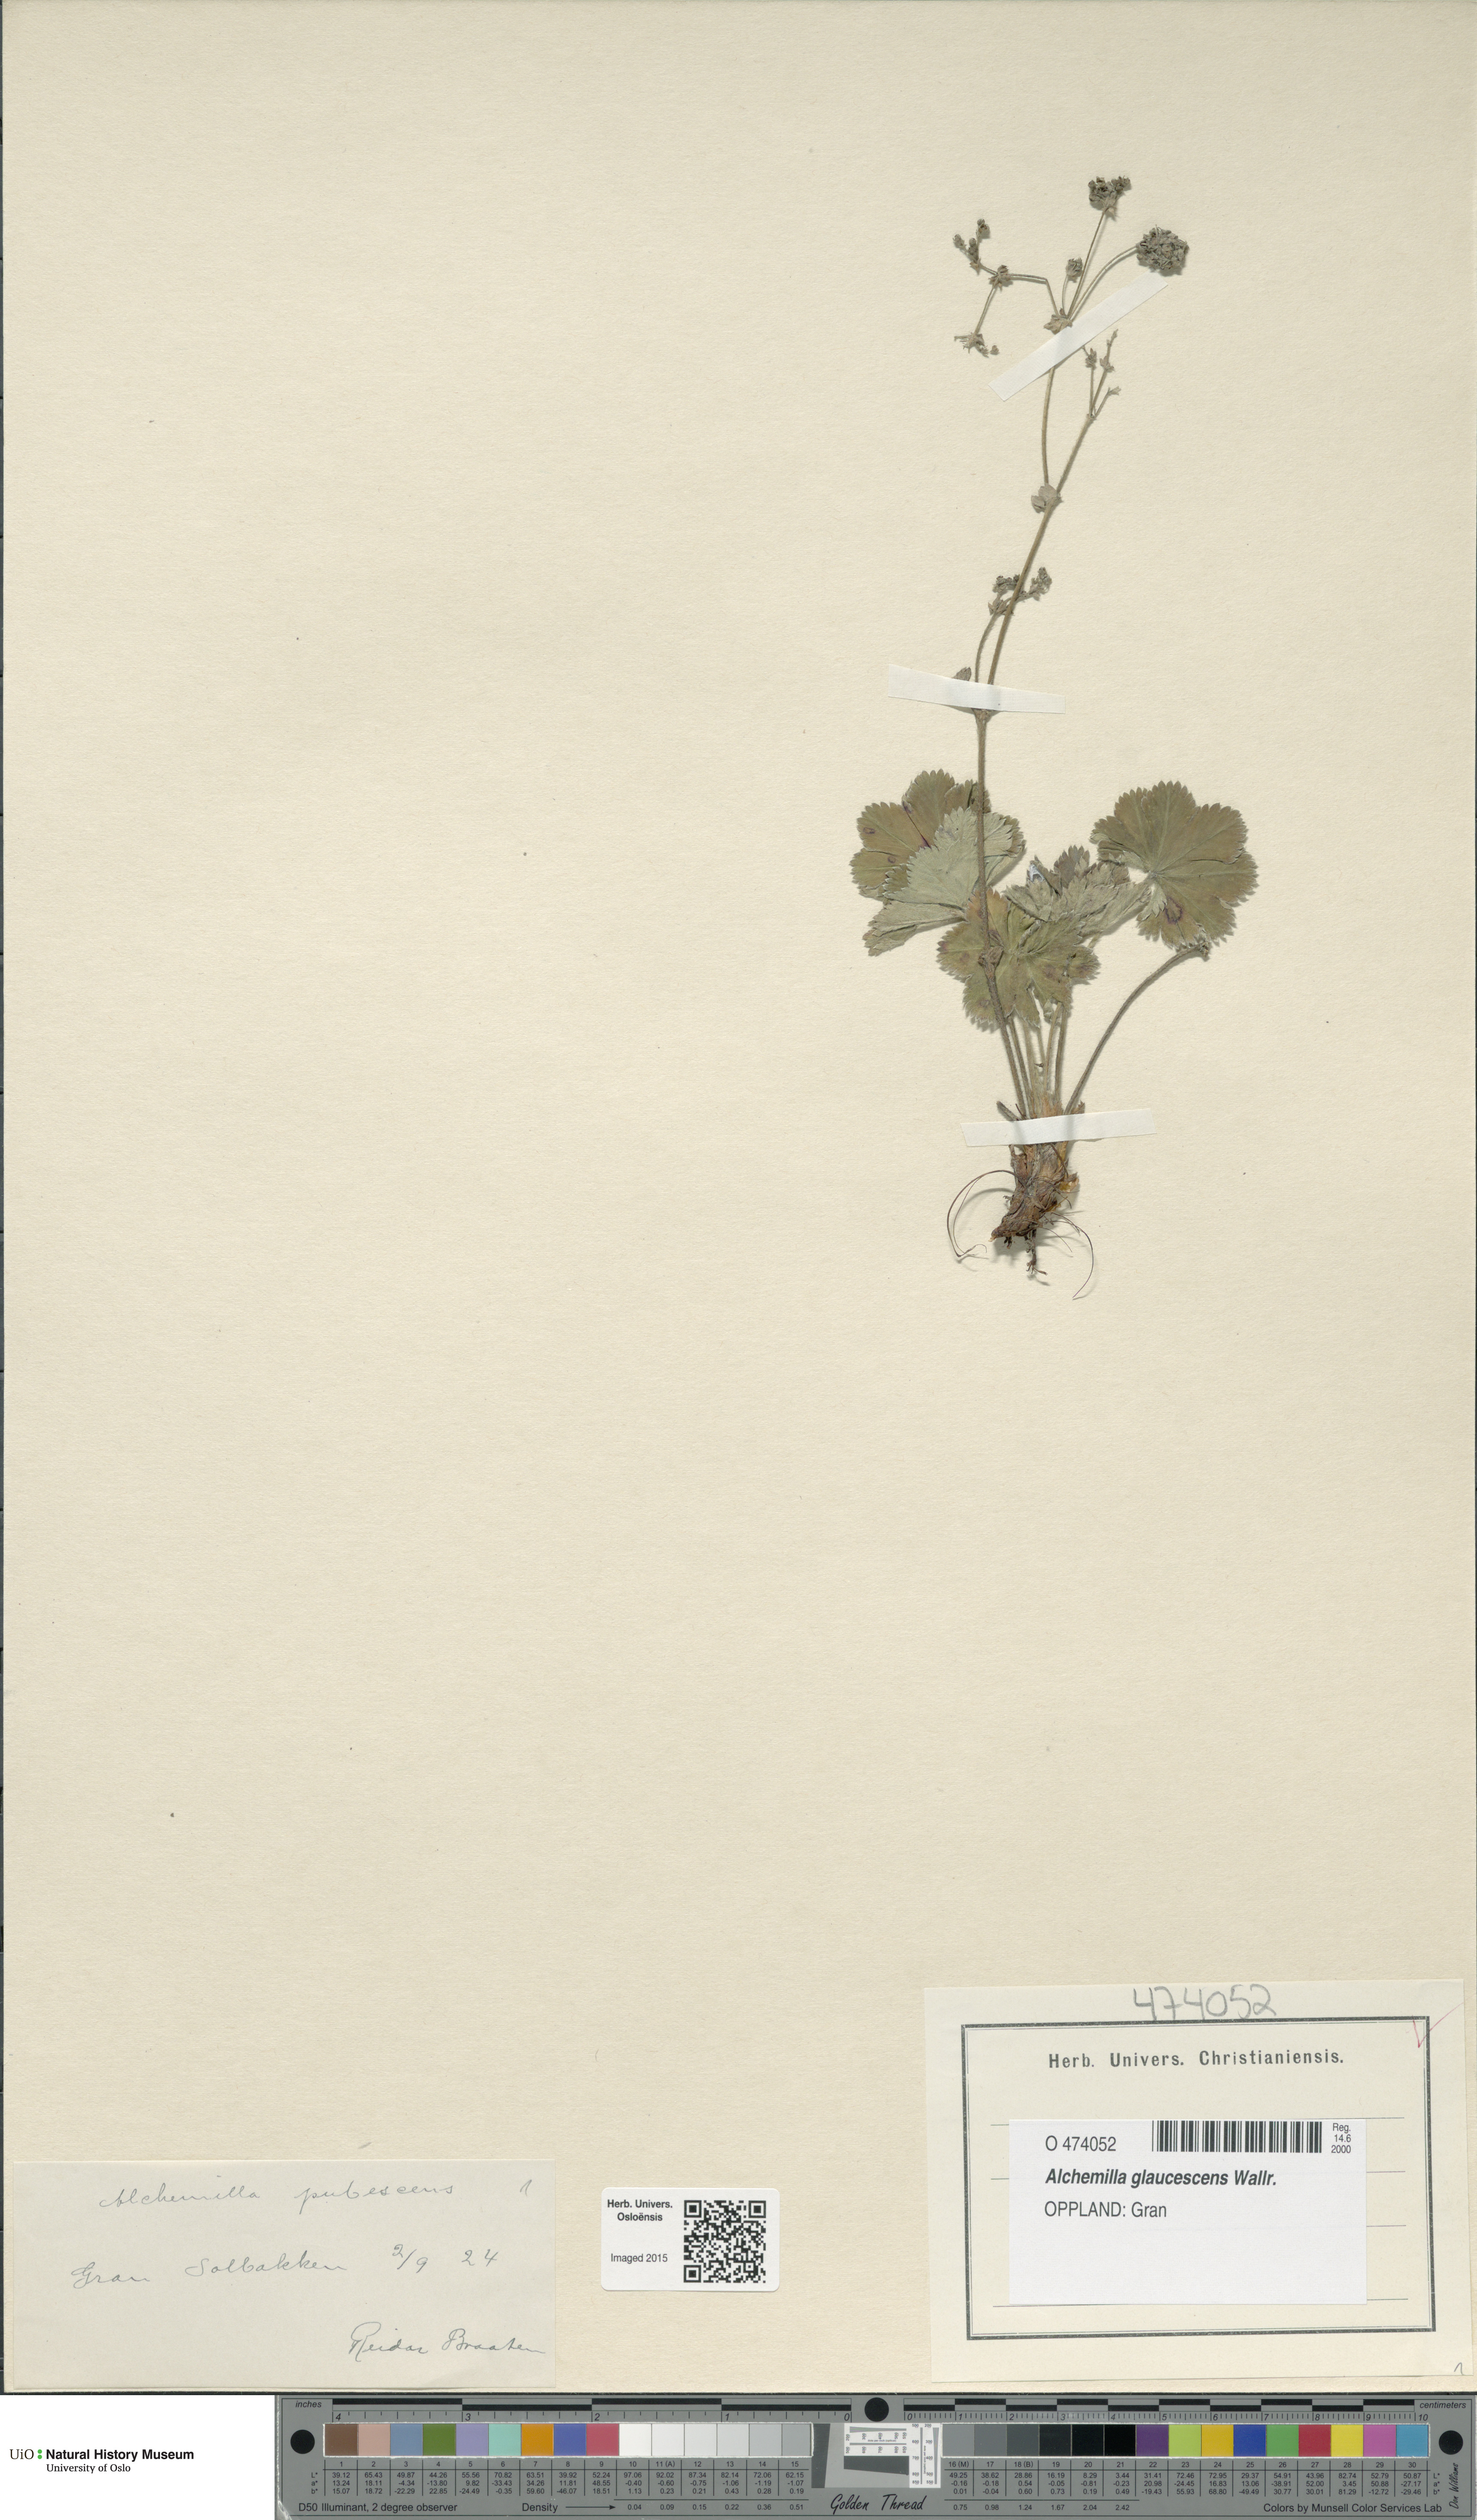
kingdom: Plantae
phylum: Tracheophyta
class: Magnoliopsida
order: Rosales
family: Rosaceae
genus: Alchemilla
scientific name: Alchemilla glaucescens
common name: Silky lady's mantle
